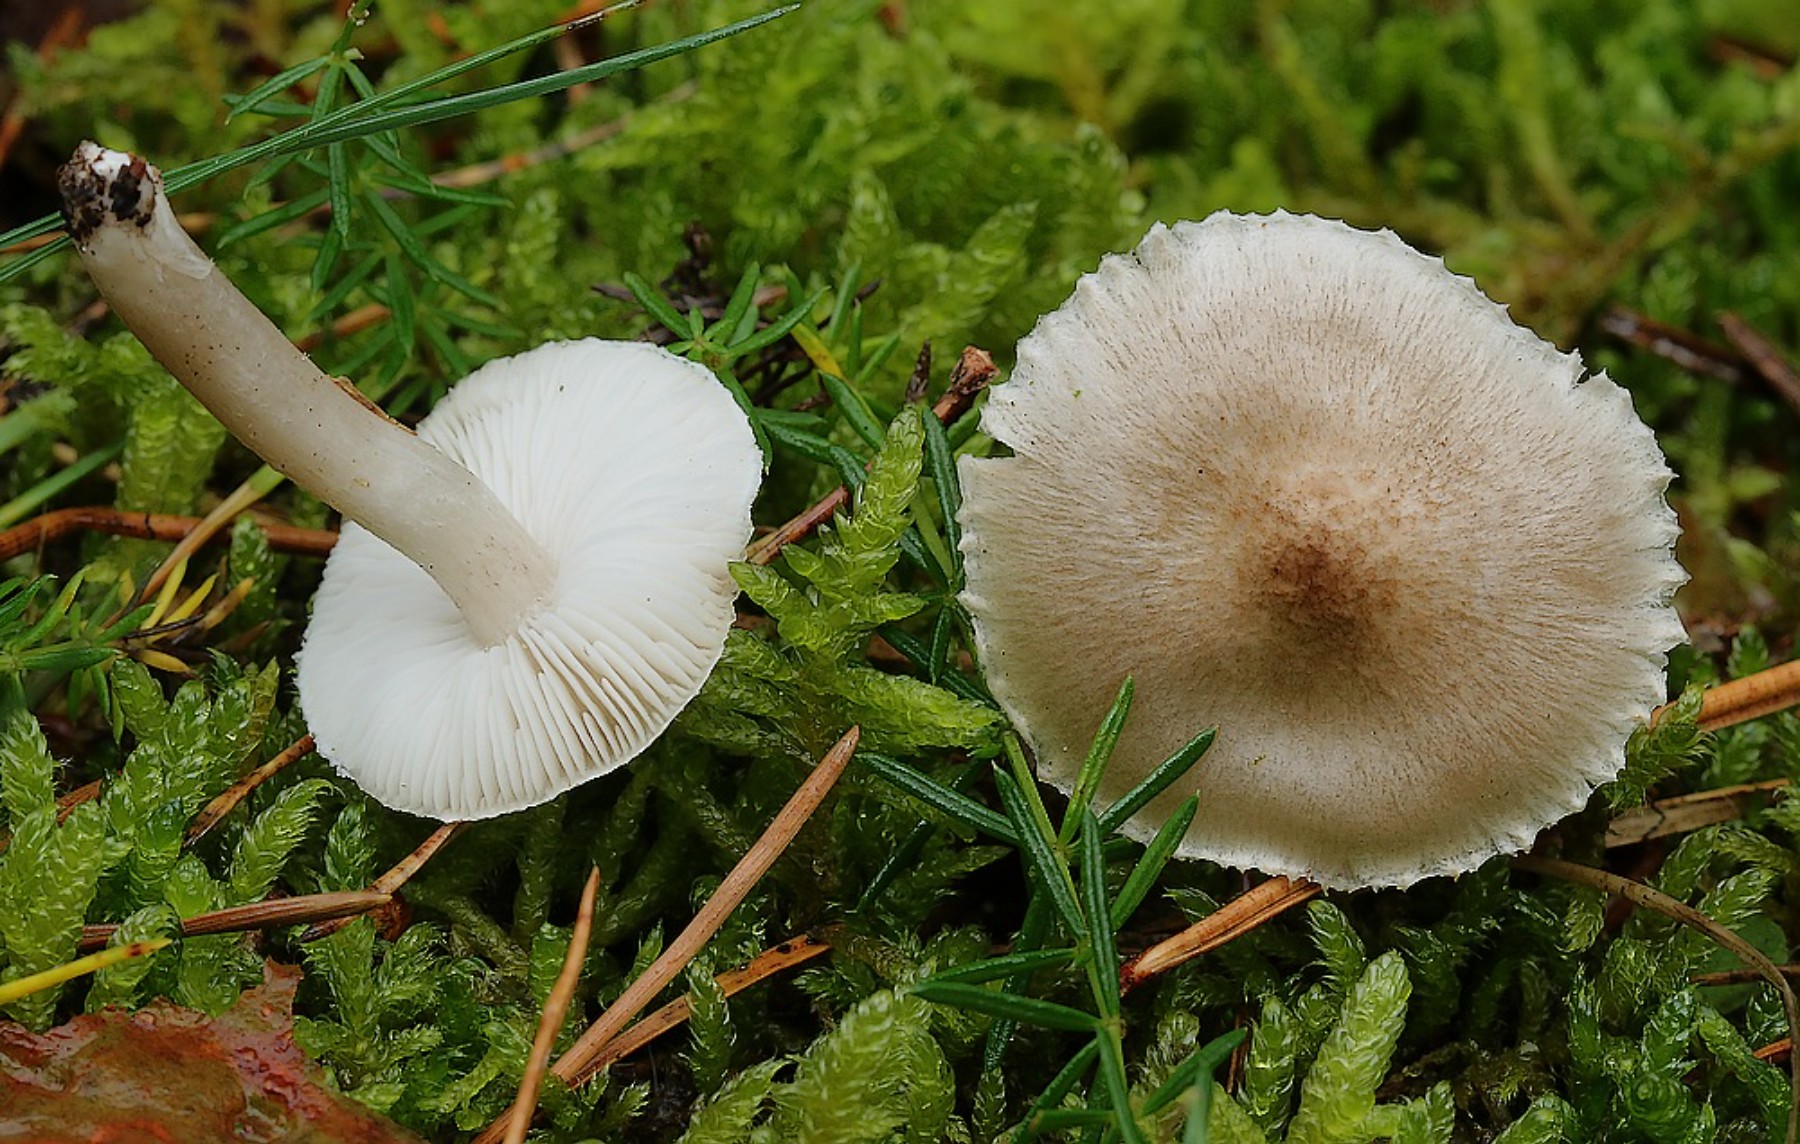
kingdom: Fungi
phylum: Basidiomycota
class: Agaricomycetes
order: Agaricales
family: Tricholomataceae
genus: Tricholoma
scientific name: Tricholoma argyraceum
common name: slør-ridderhat
